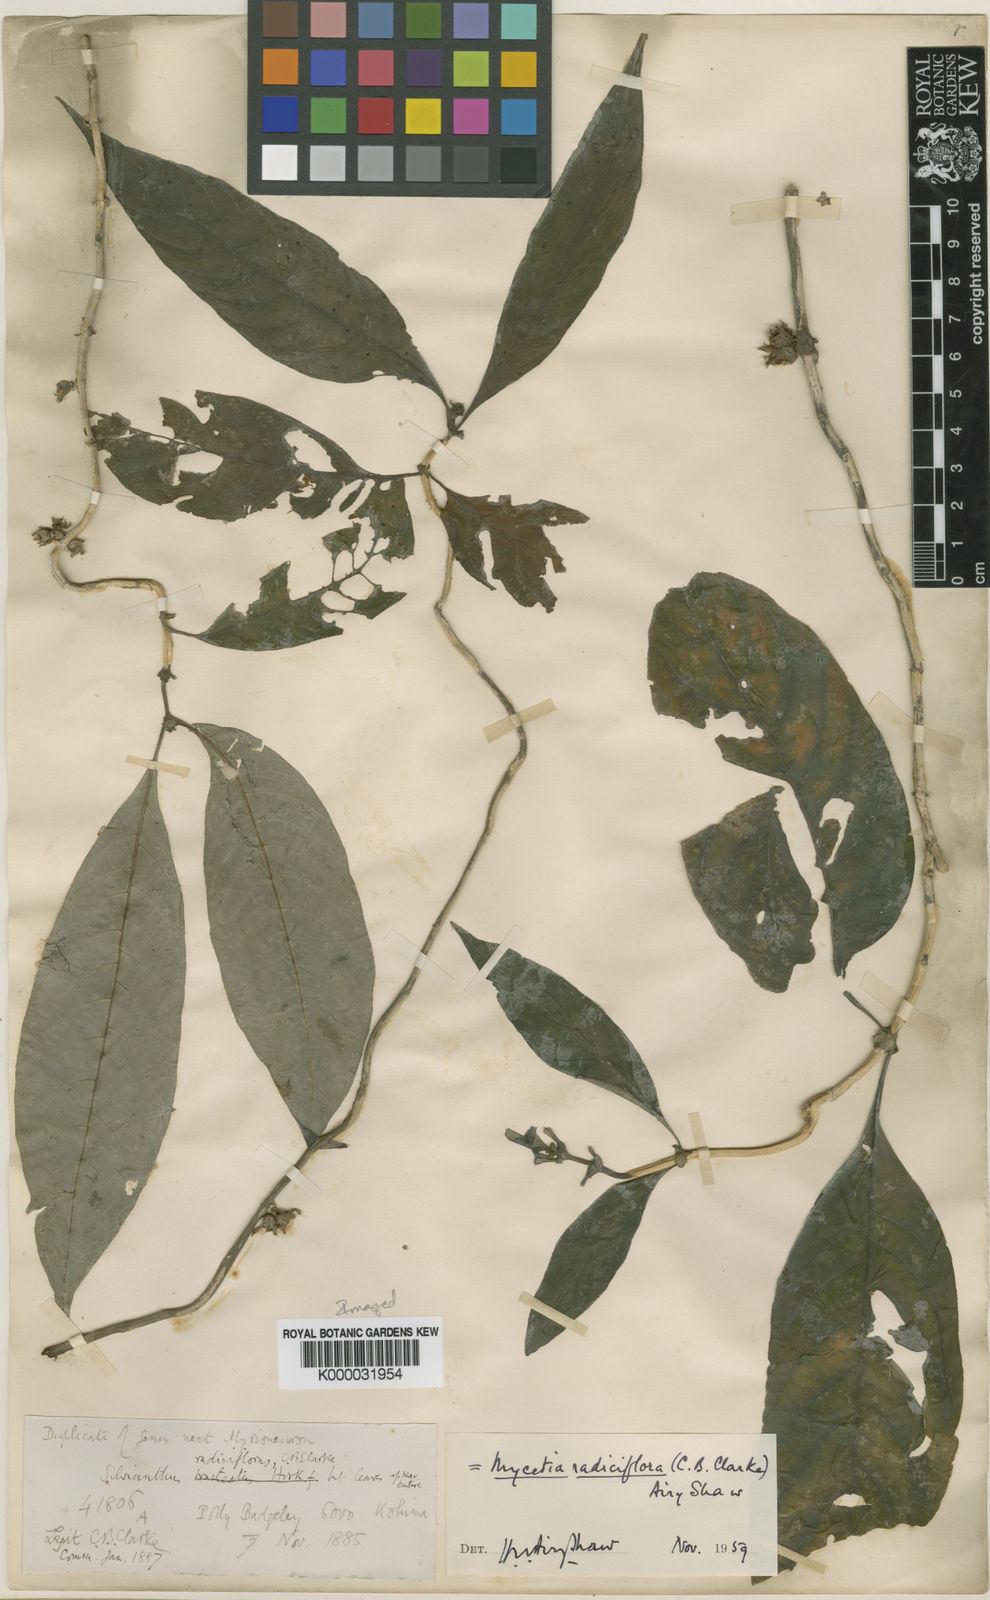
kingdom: Plantae
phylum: Tracheophyta
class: Magnoliopsida
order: Gentianales
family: Rubiaceae
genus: Mycetia
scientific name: Mycetia radiciflora
